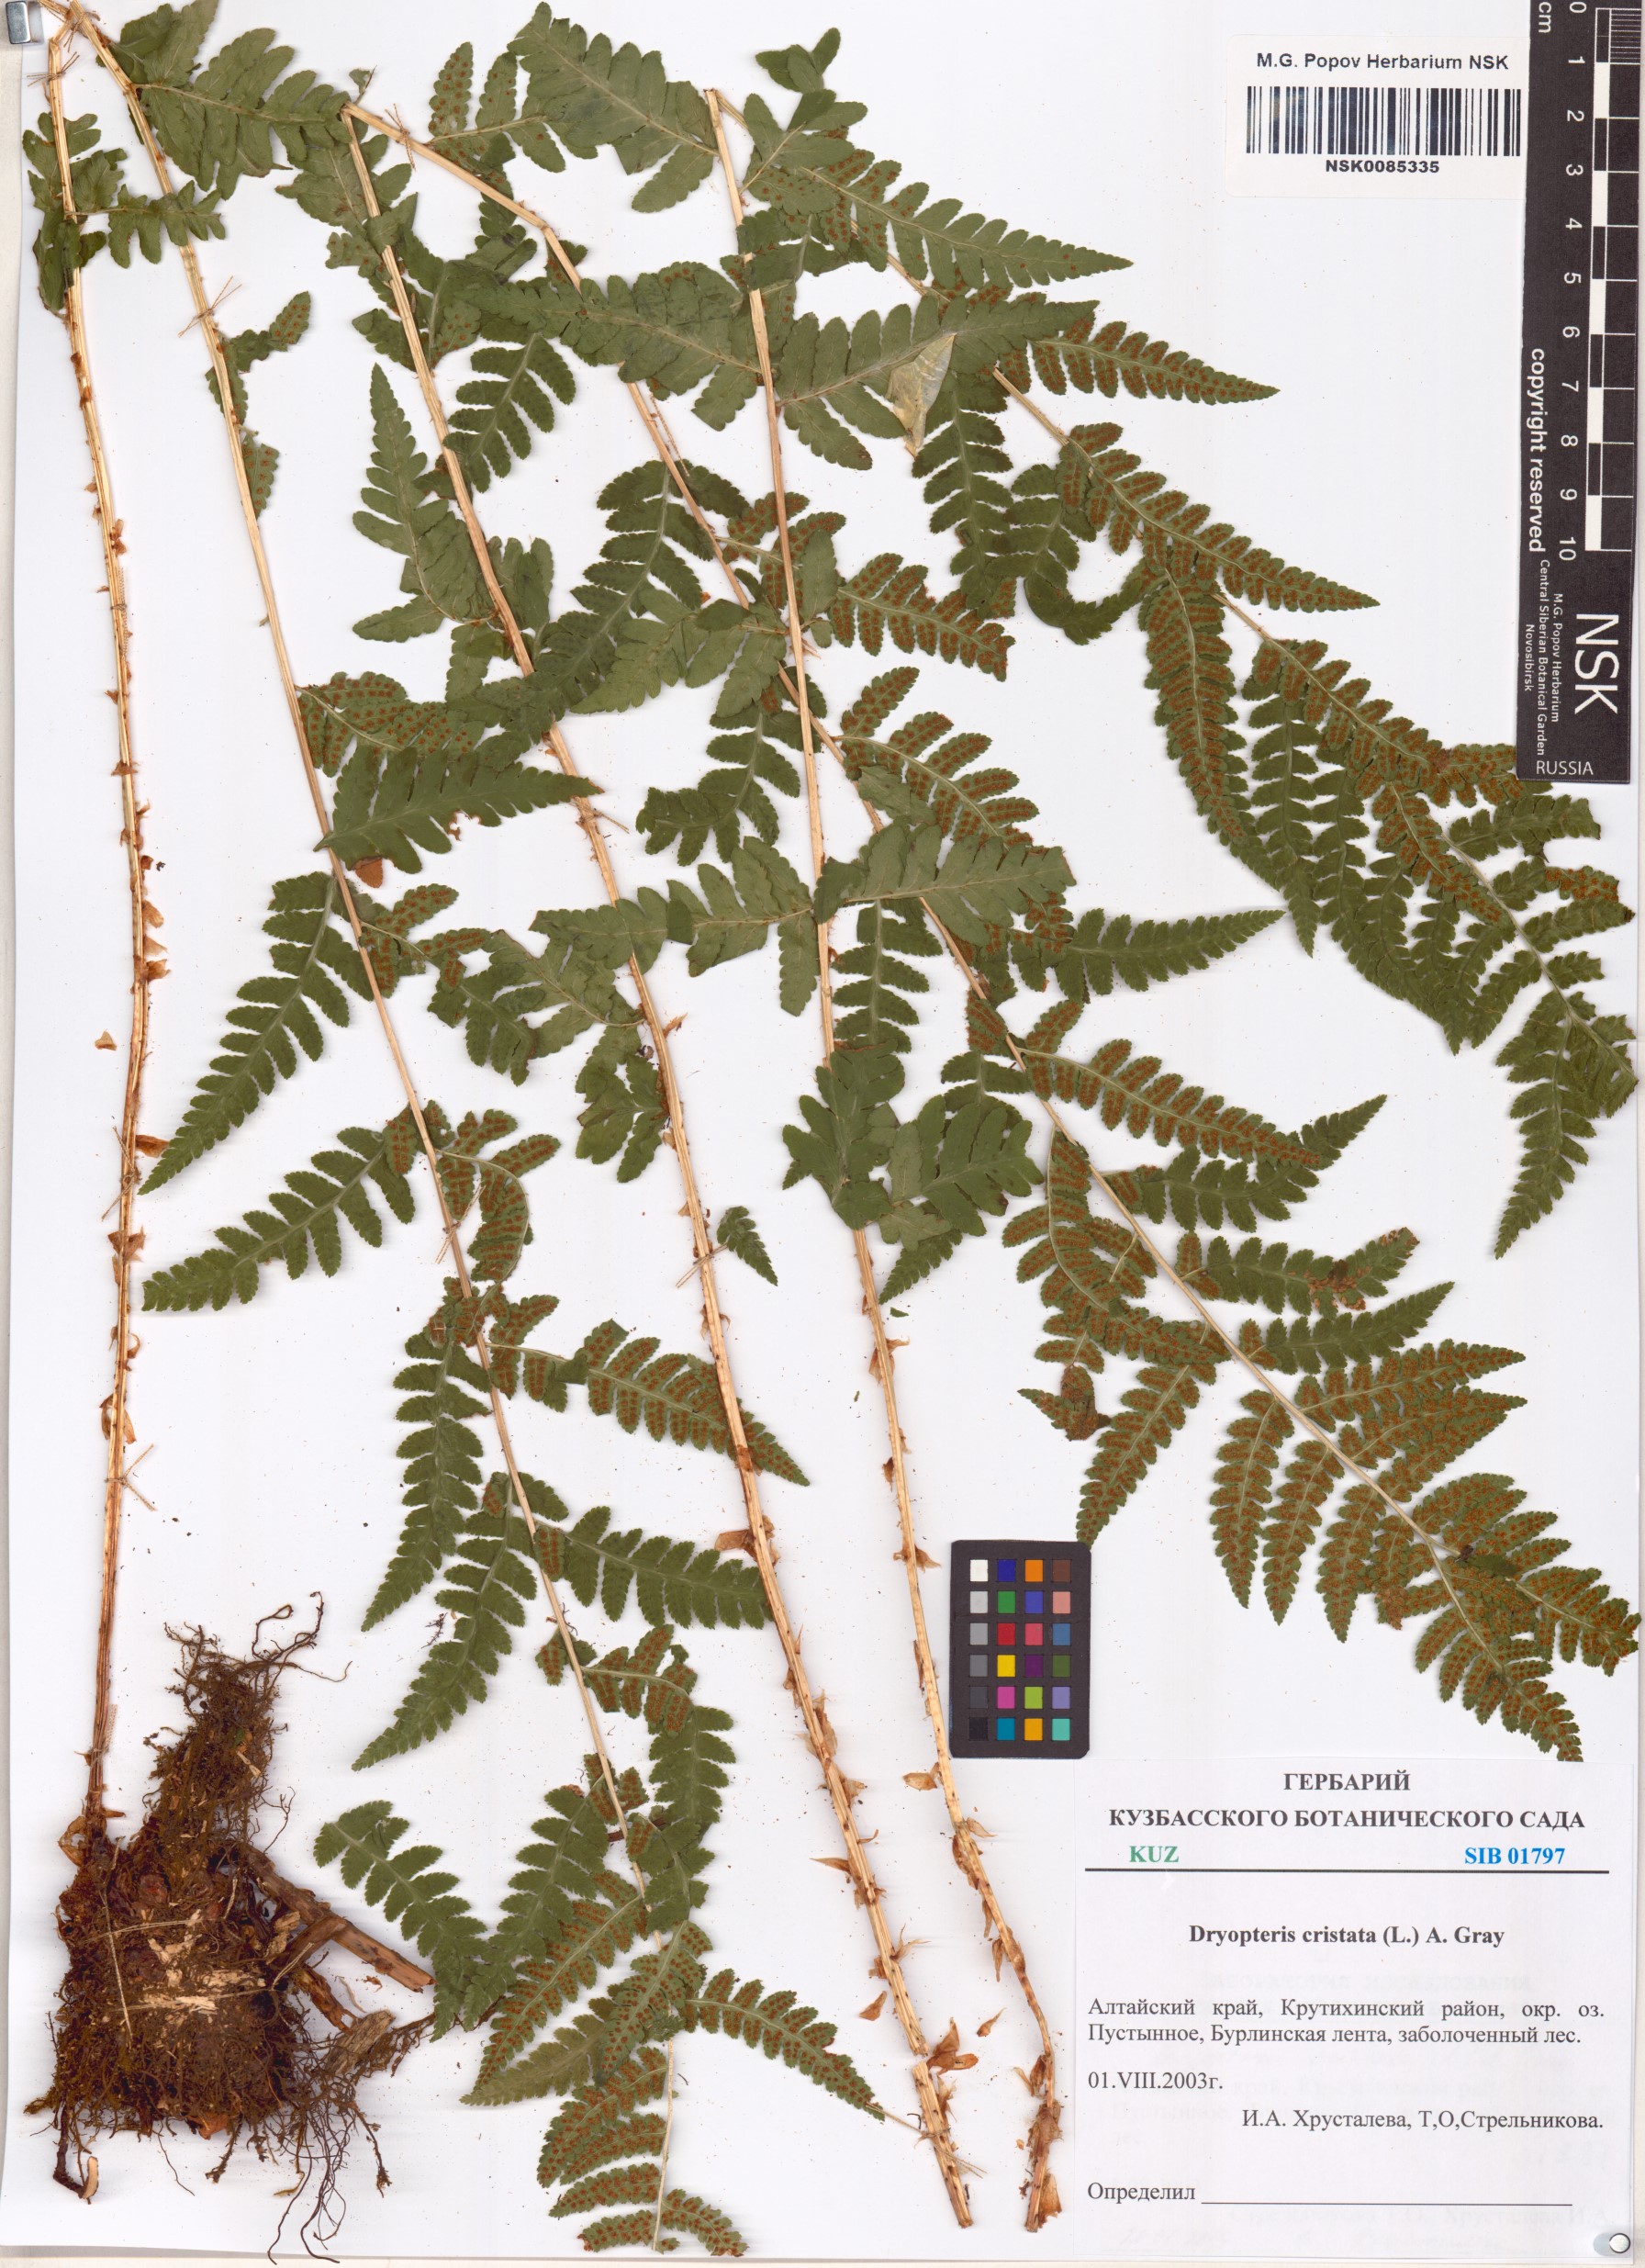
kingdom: Plantae
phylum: Tracheophyta
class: Polypodiopsida
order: Polypodiales
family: Dryopteridaceae
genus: Dryopteris
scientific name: Dryopteris cristata
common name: Crested wood fern
